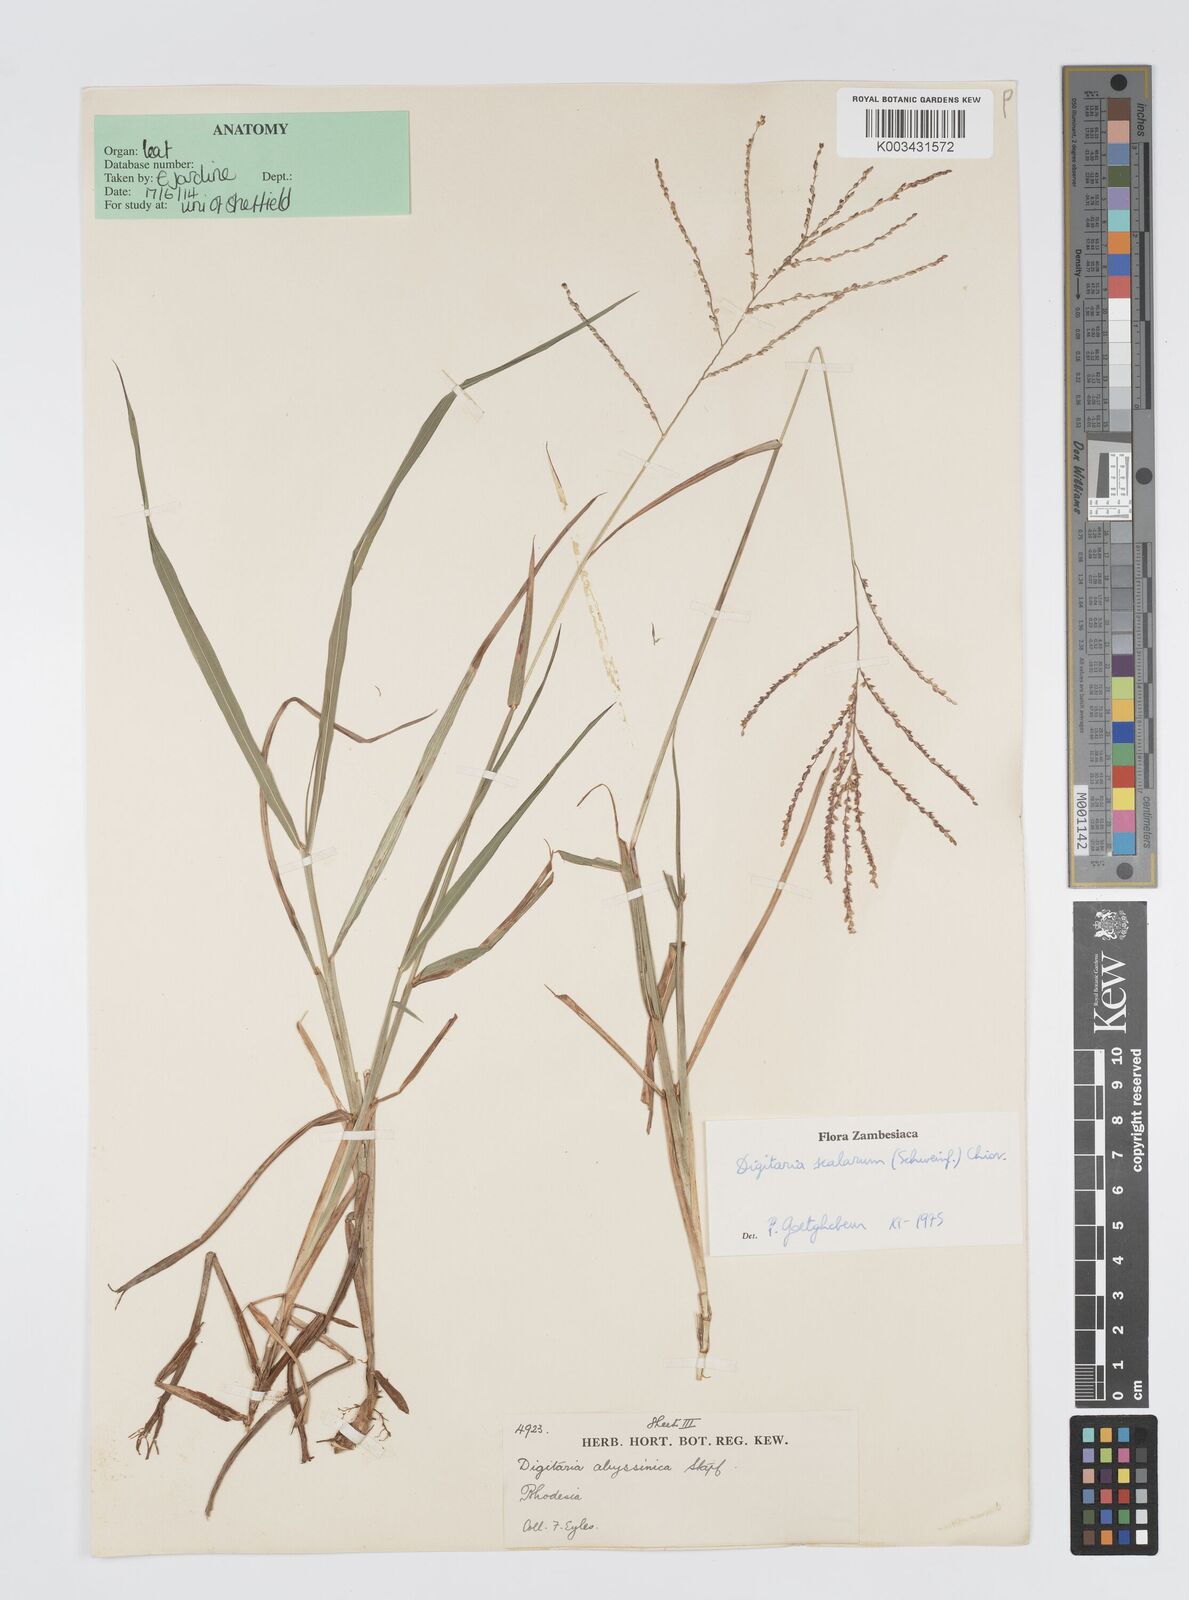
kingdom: Plantae
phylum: Tracheophyta
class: Liliopsida
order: Poales
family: Poaceae
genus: Digitaria
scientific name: Digitaria abyssinica
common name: African couchgrass
